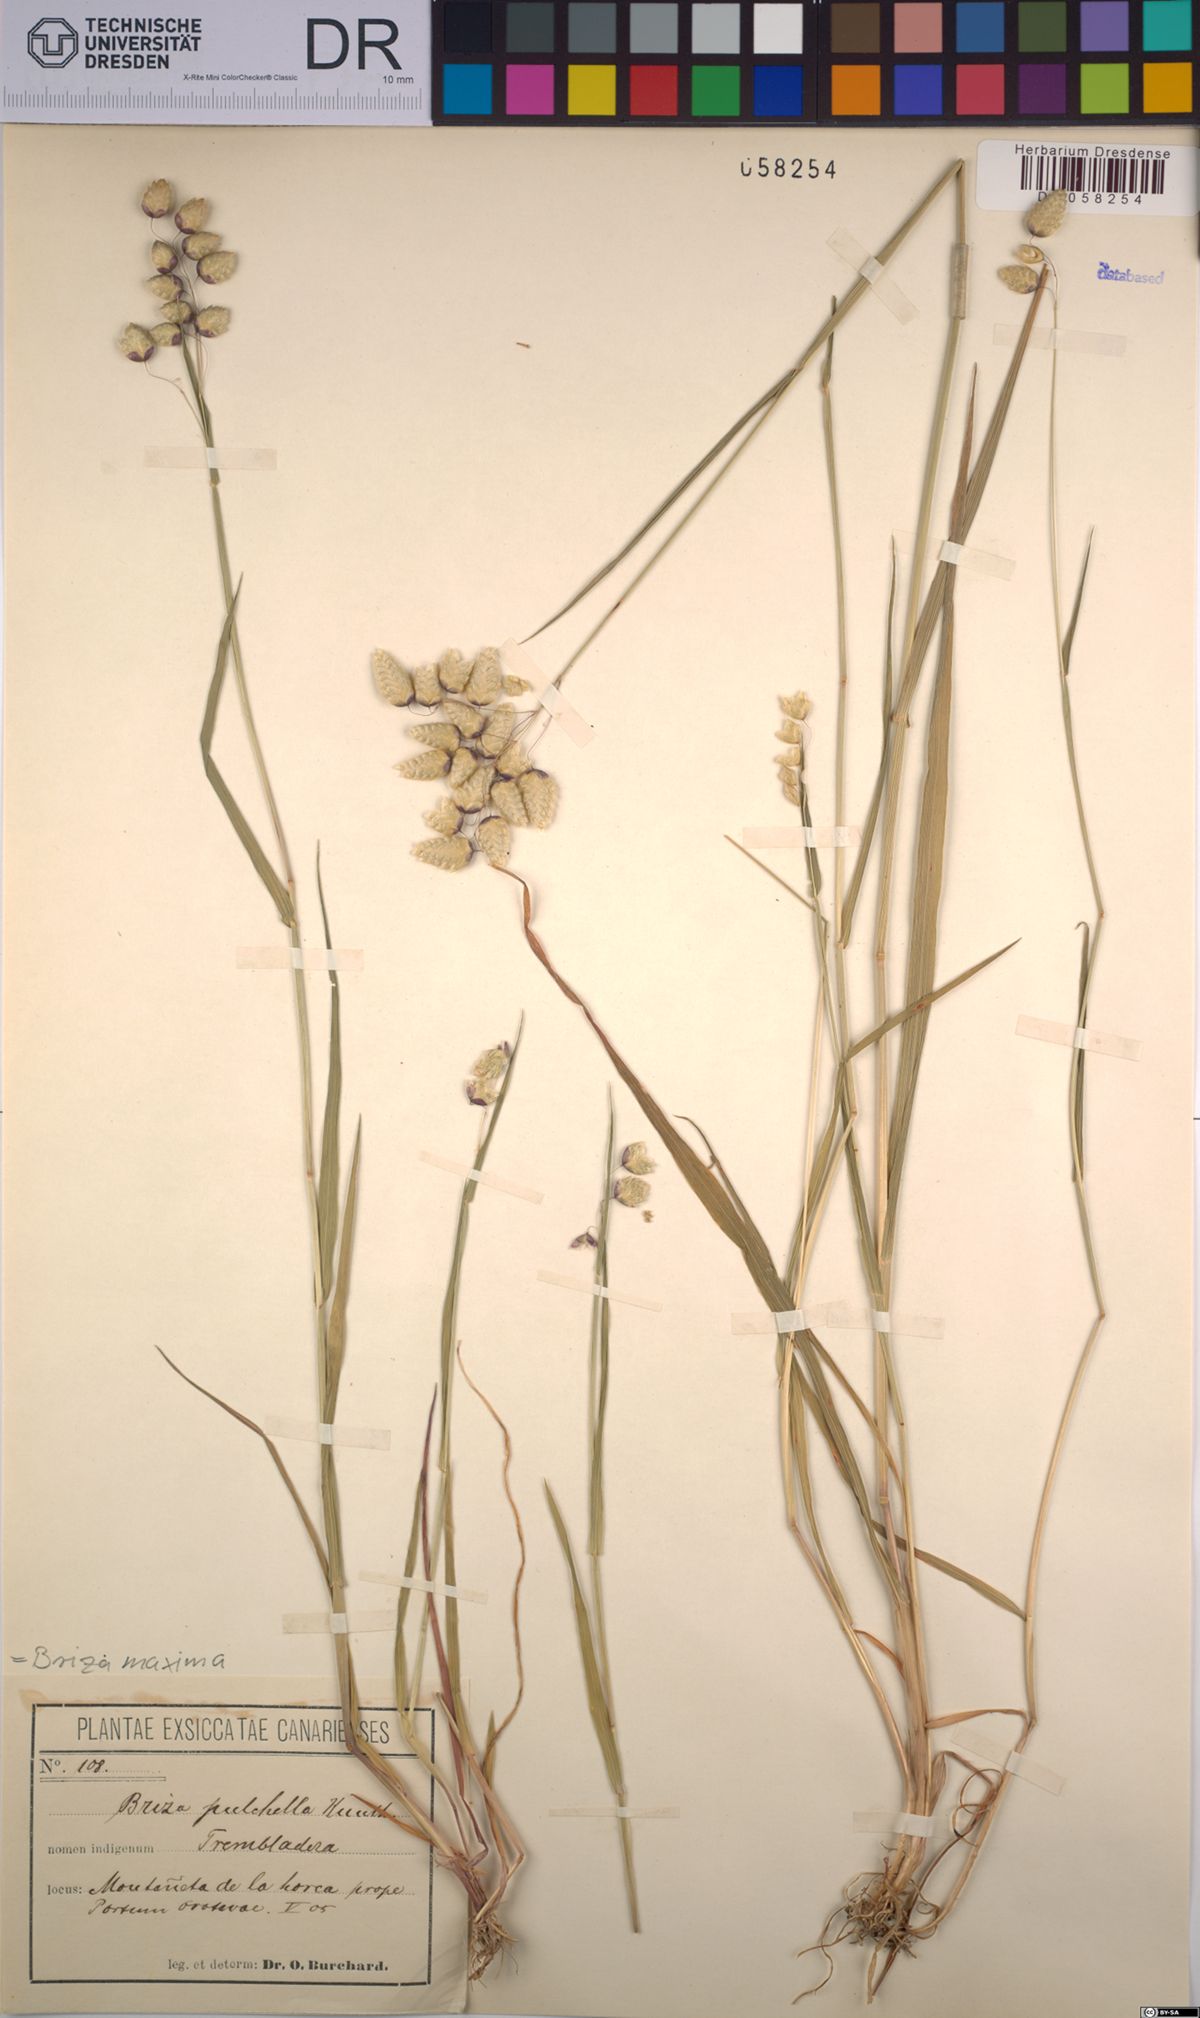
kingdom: Plantae
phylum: Tracheophyta
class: Liliopsida
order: Poales
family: Poaceae
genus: Briza
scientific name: Briza maxima
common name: Big quakinggrass
